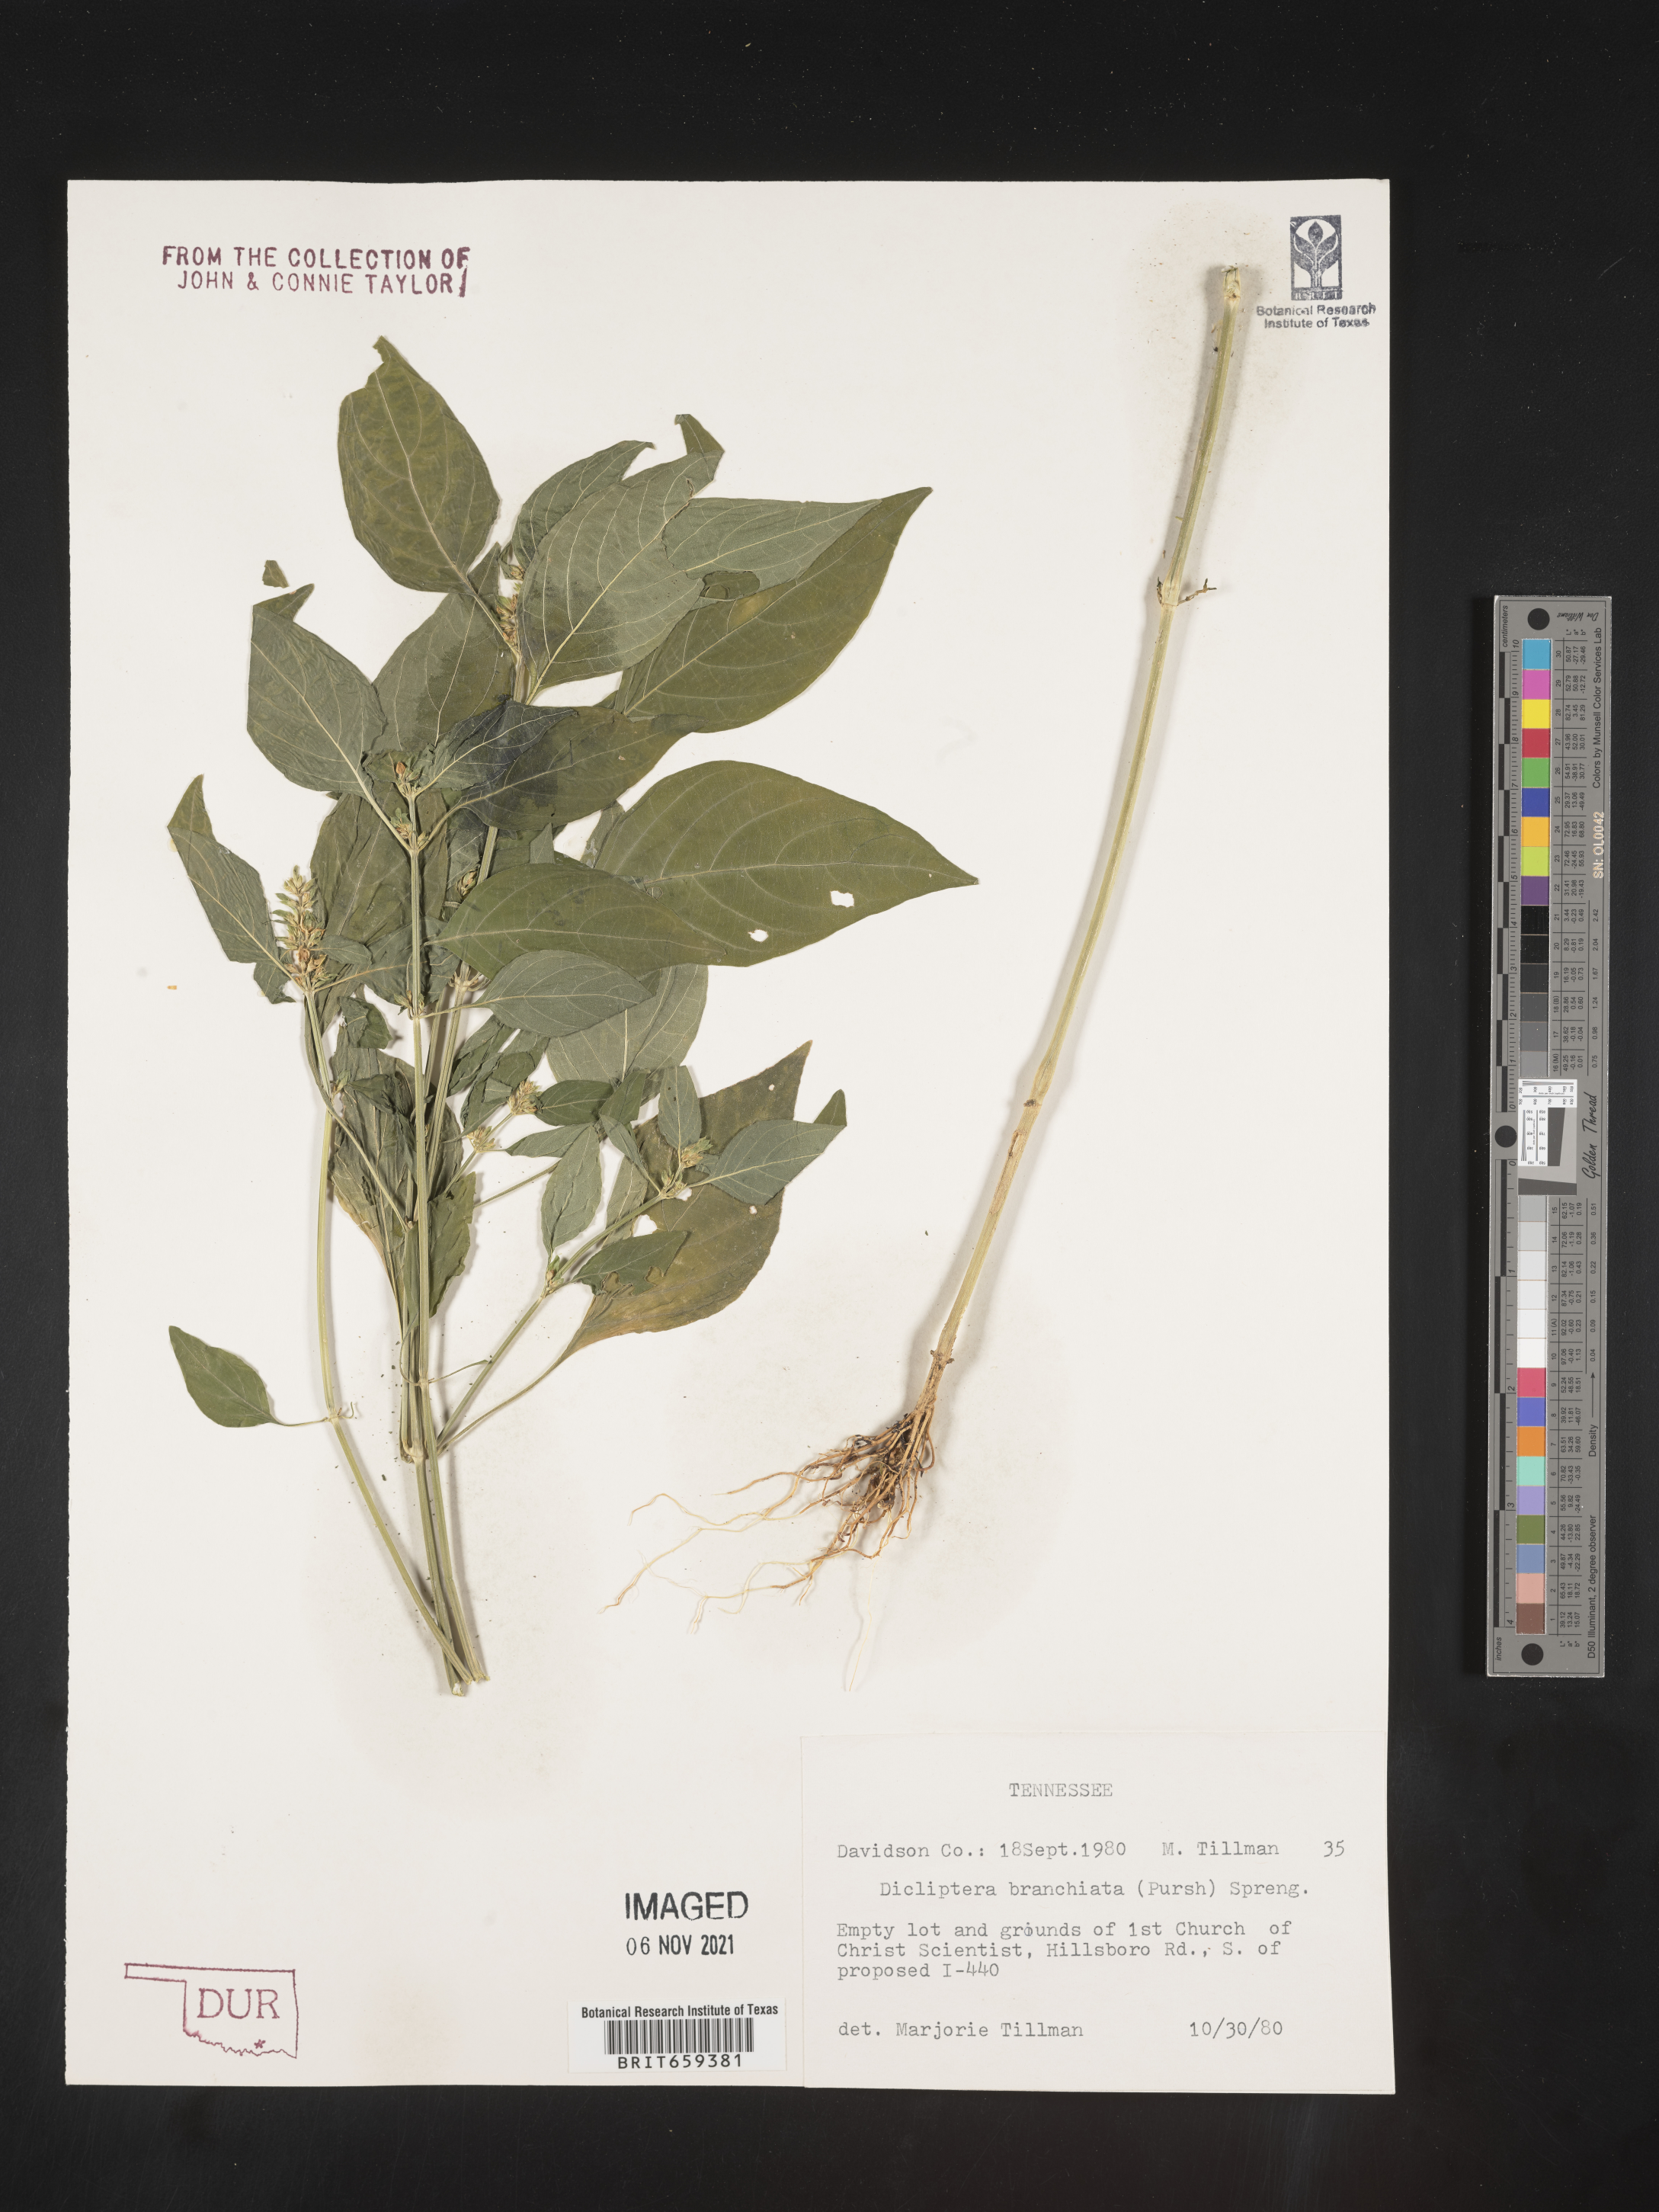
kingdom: Plantae
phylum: Tracheophyta
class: Magnoliopsida
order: Lamiales
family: Acanthaceae
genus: Dicliptera
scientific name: Dicliptera brachiata
